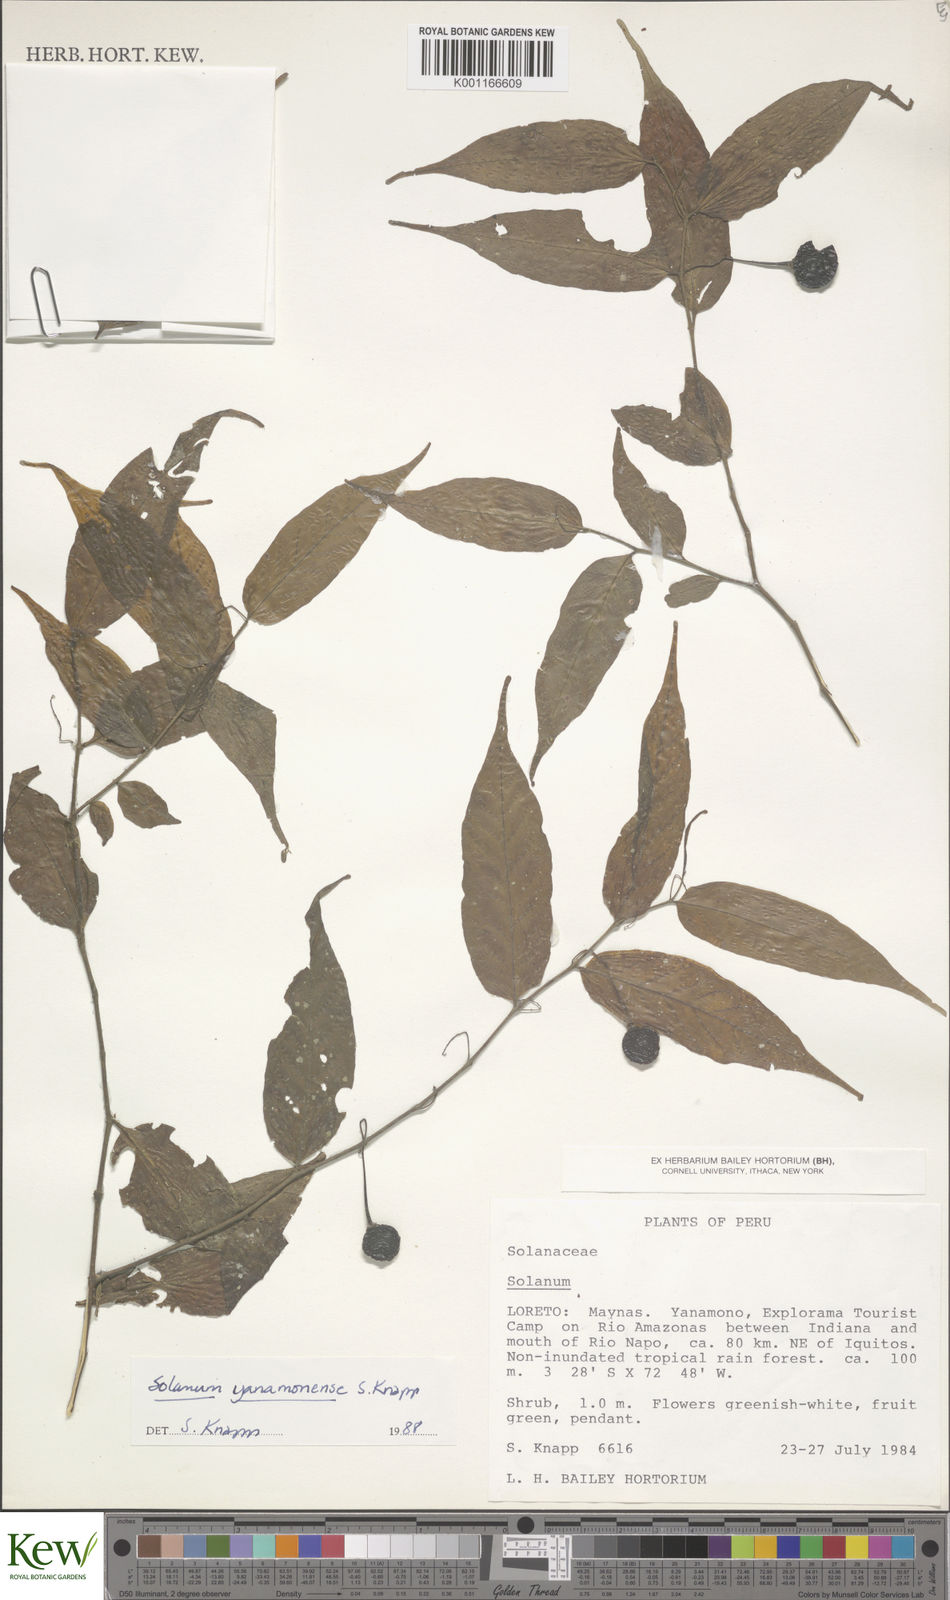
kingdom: Plantae
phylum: Tracheophyta
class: Magnoliopsida
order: Solanales
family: Solanaceae
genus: Solanum
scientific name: Solanum yanamonense
